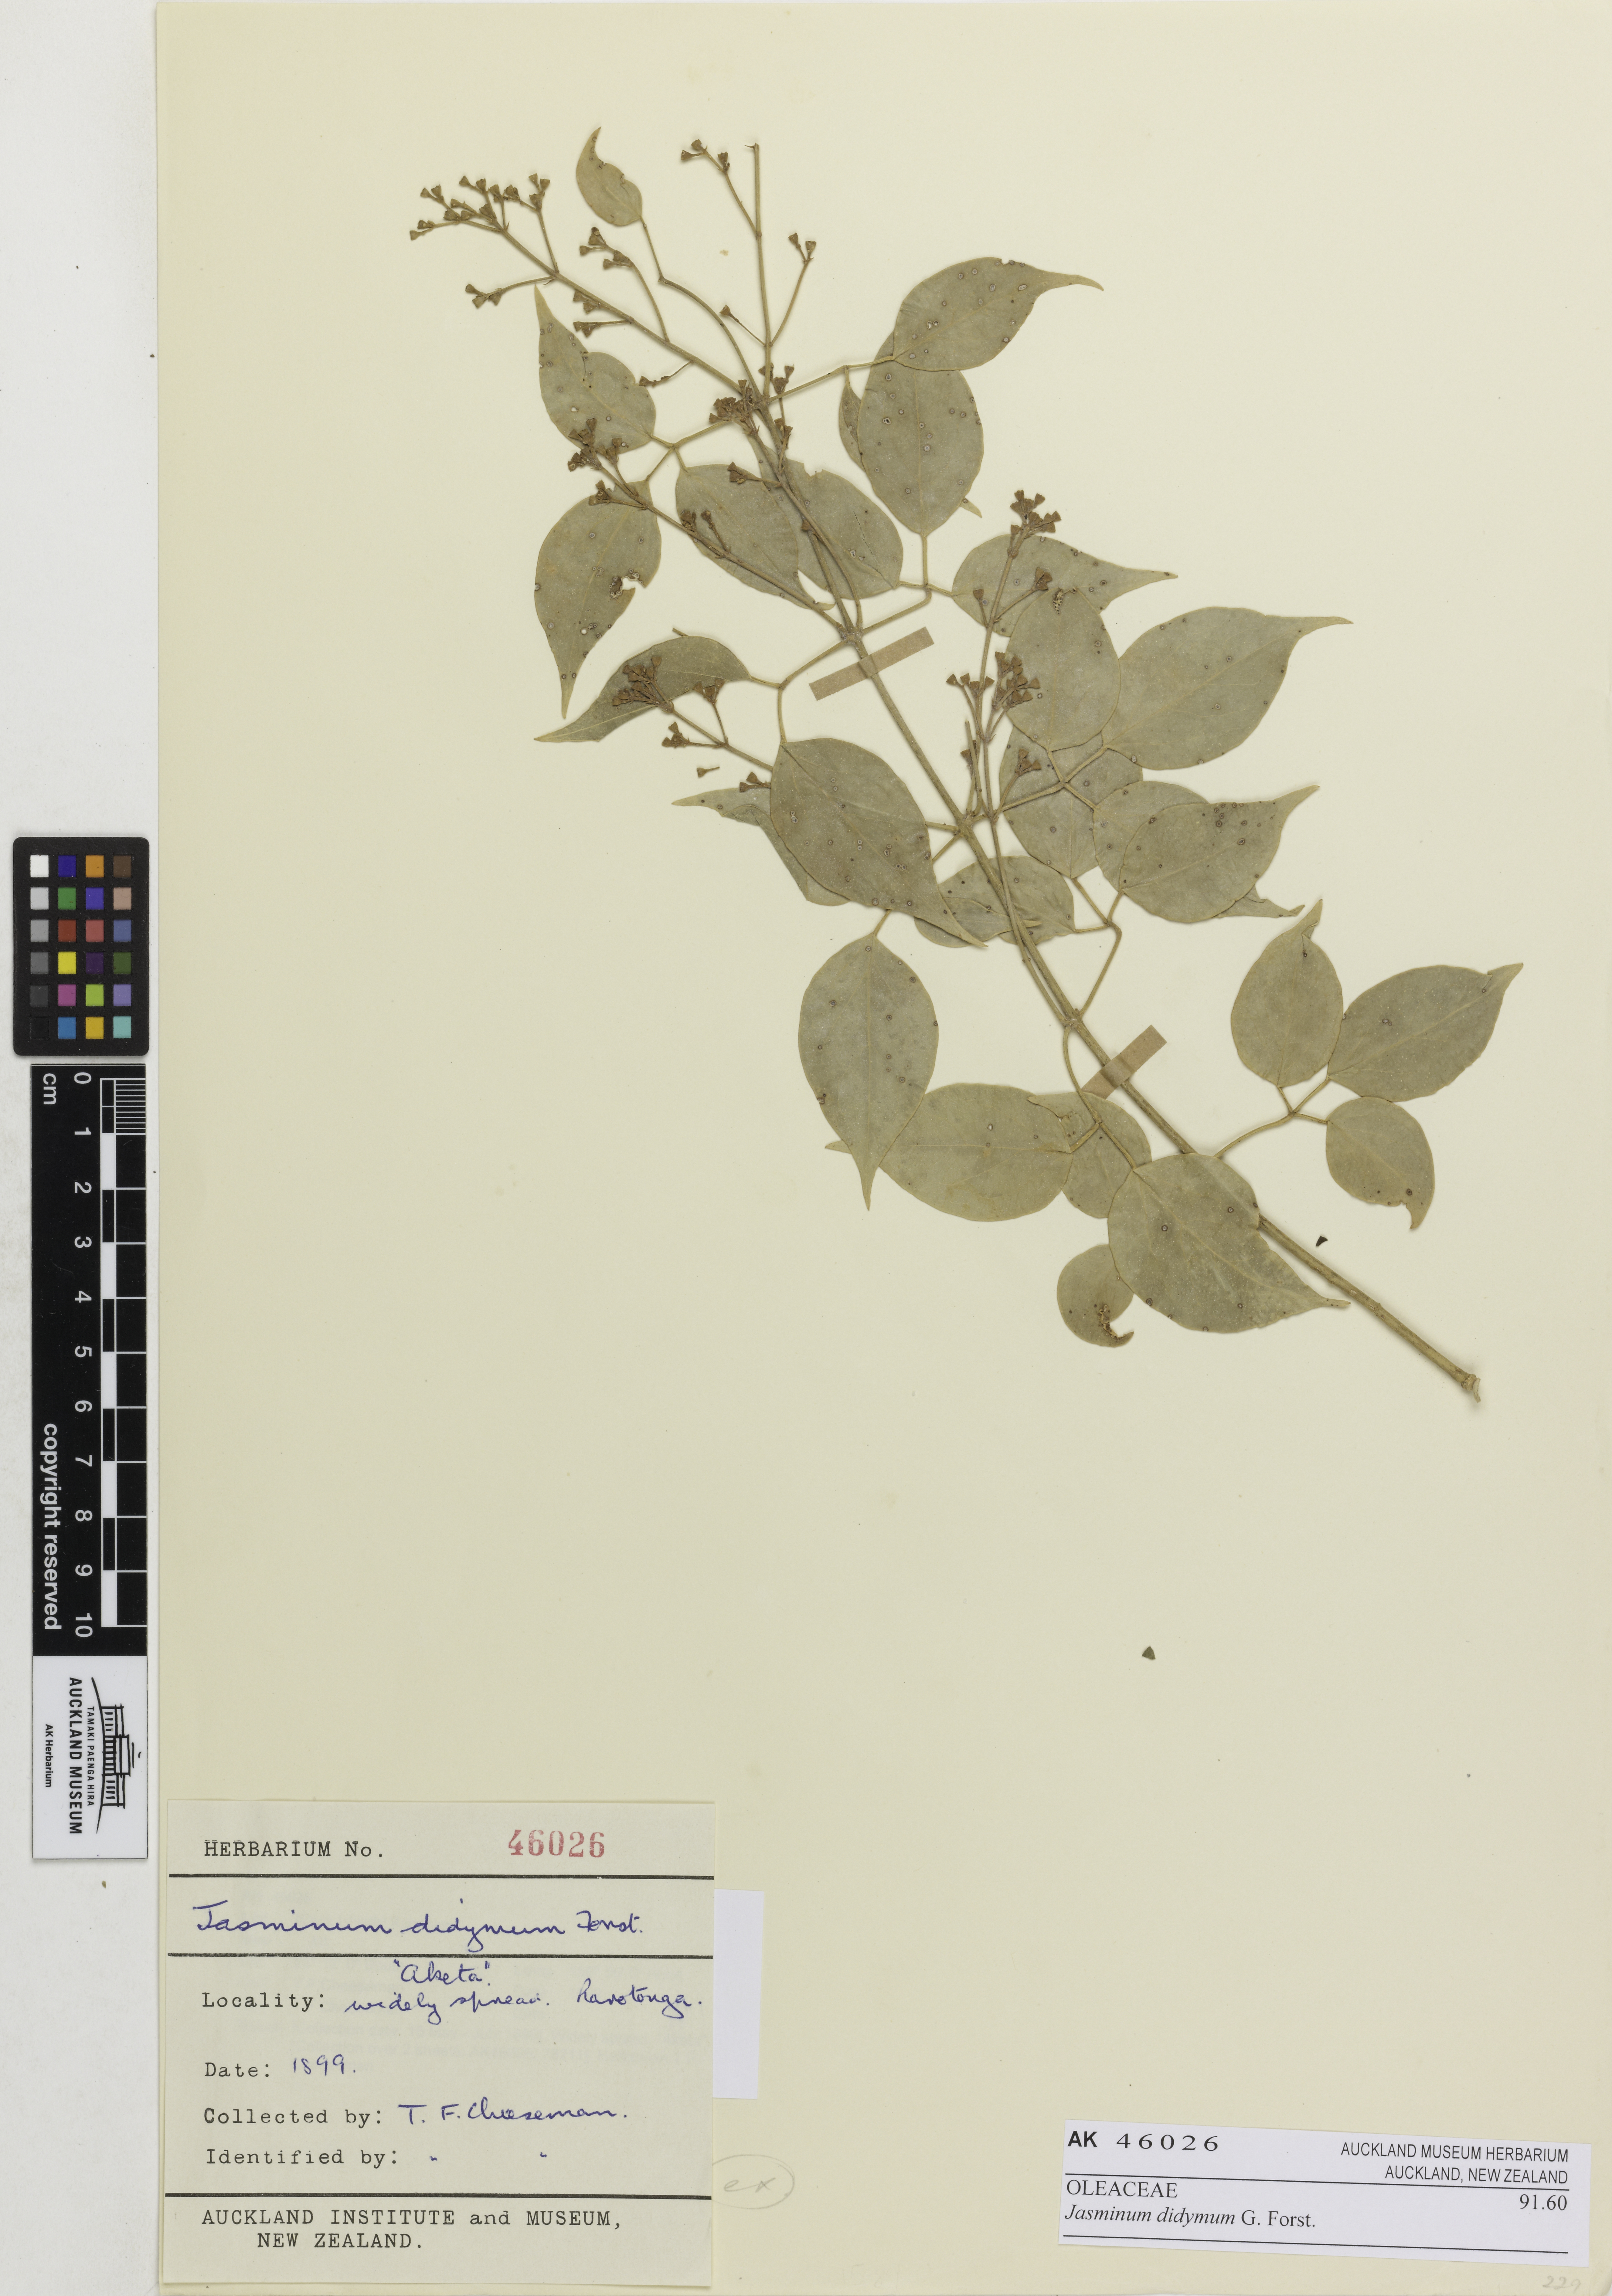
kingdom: Plantae
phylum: Tracheophyta
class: Magnoliopsida
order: Lamiales
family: Oleaceae
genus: Jasminum
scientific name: Jasminum didymum
